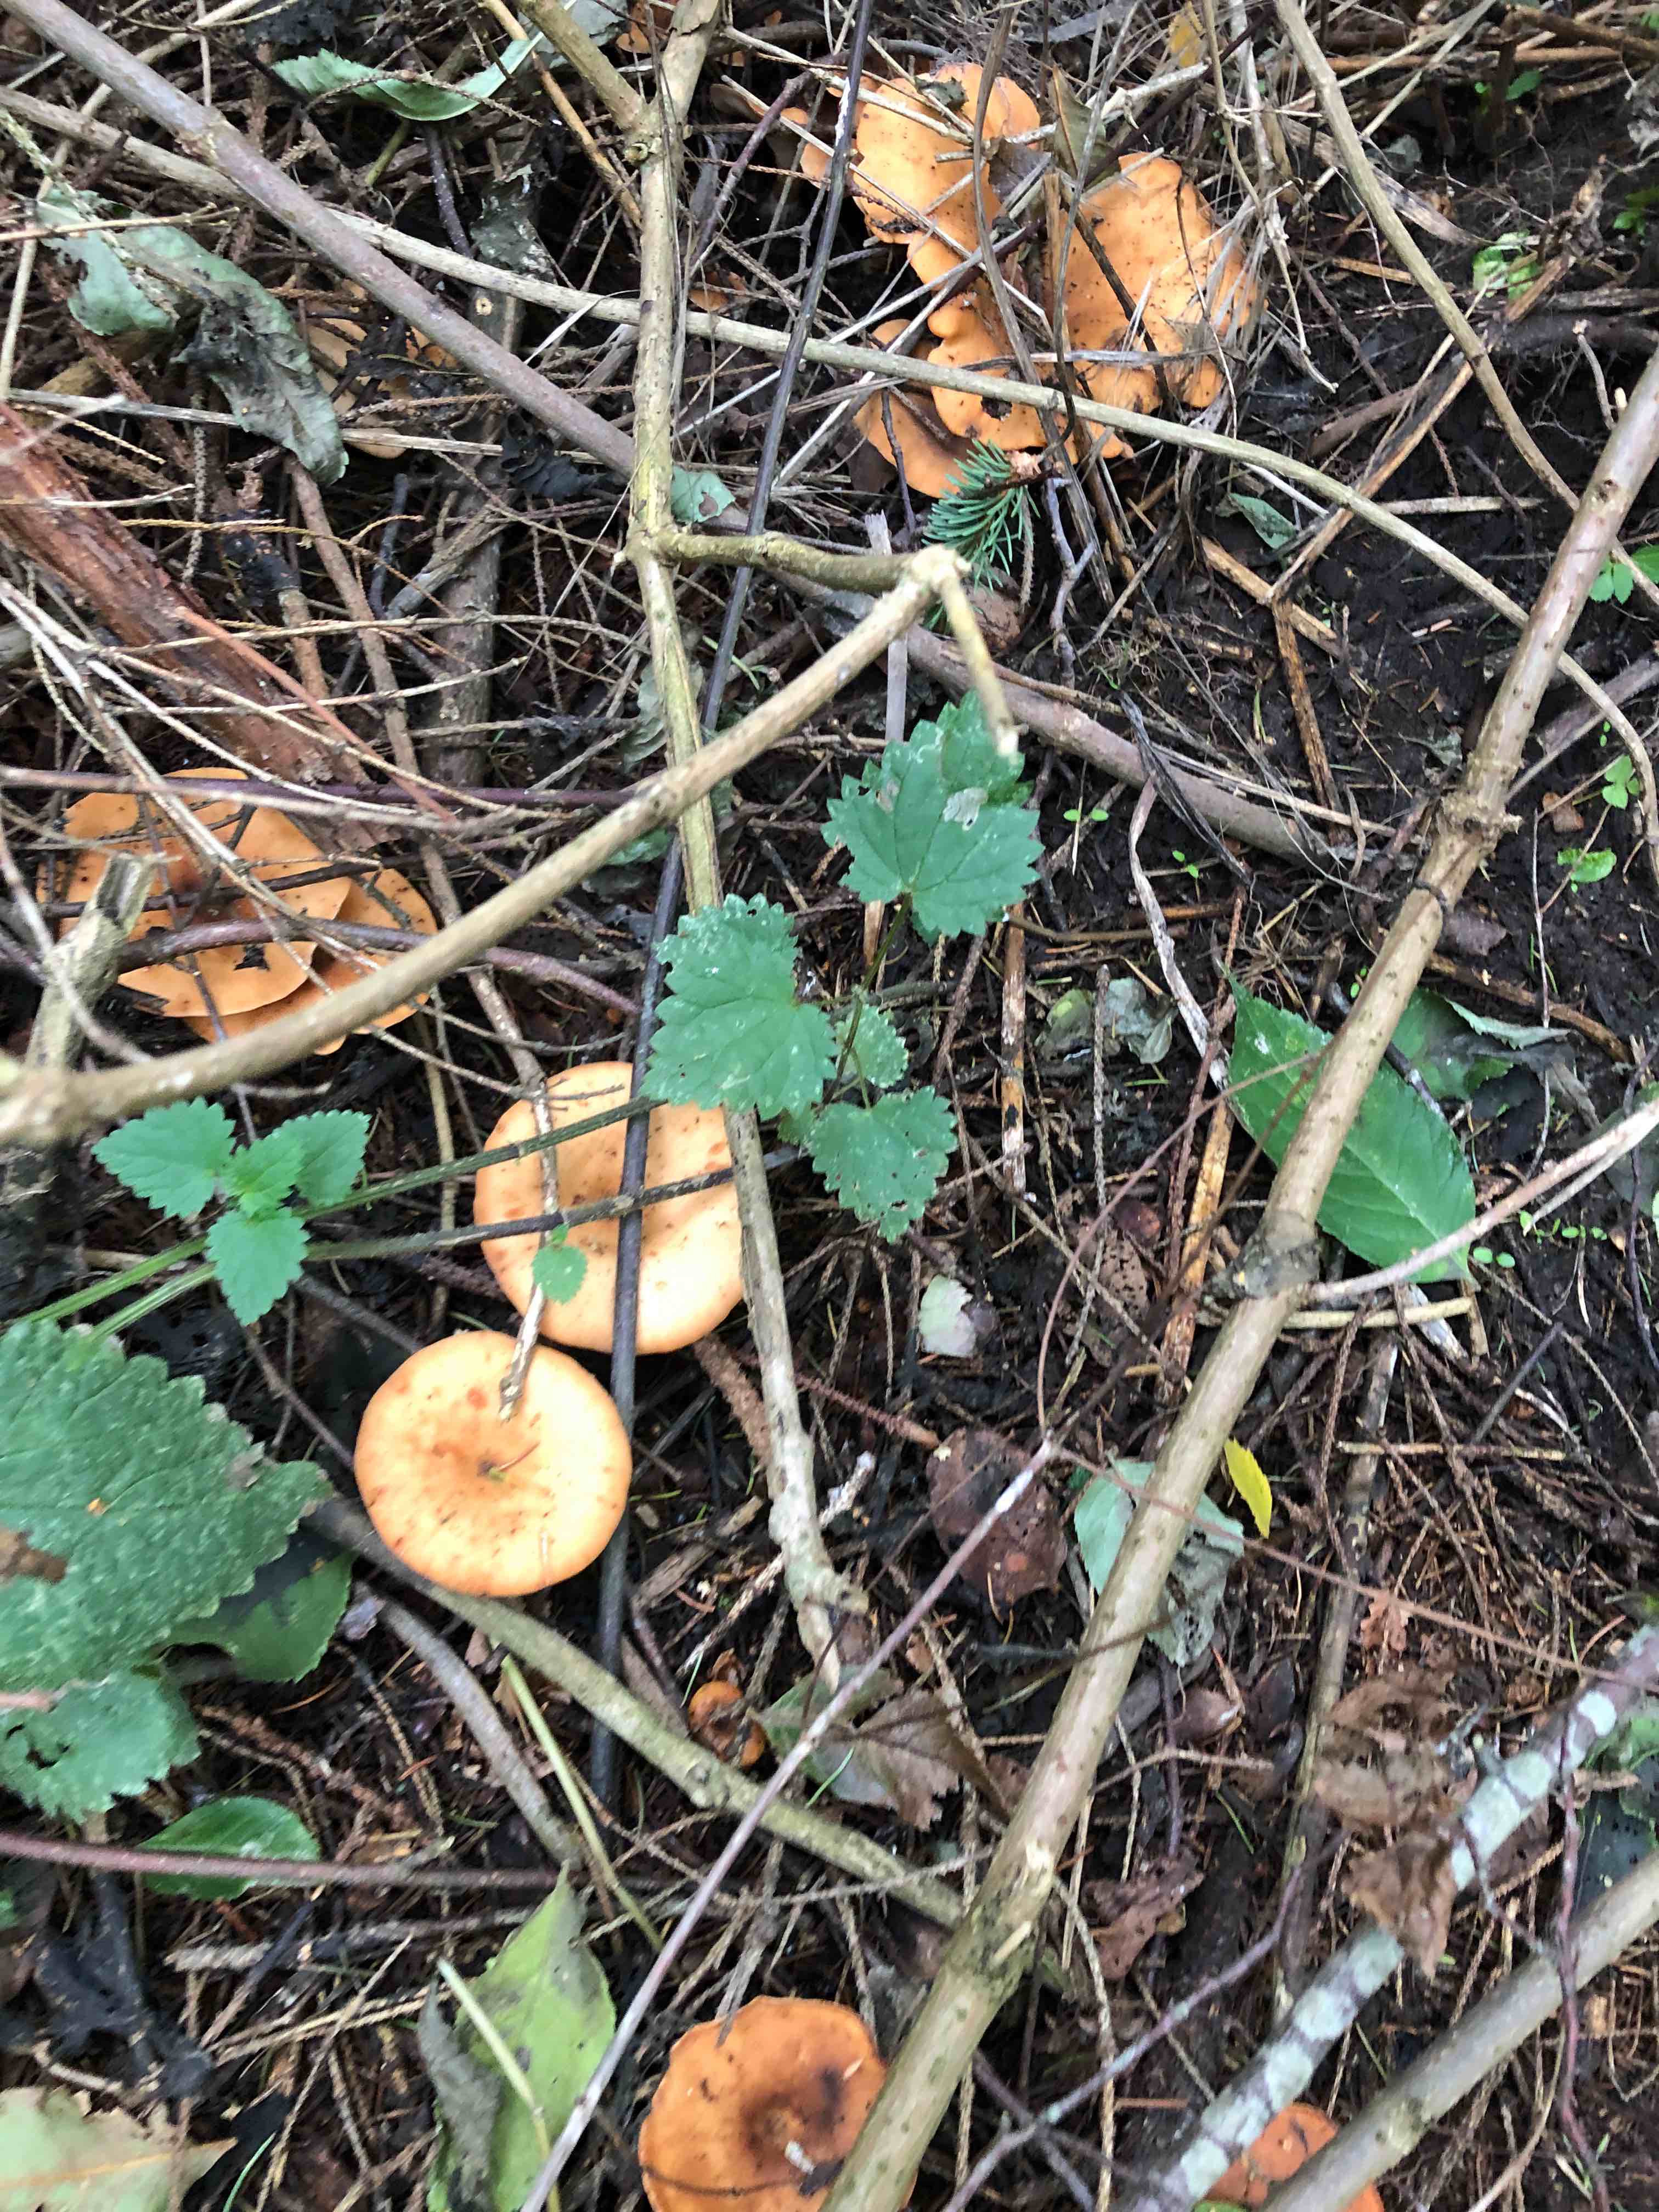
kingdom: Fungi
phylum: Basidiomycota
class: Agaricomycetes
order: Agaricales
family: Tricholomataceae
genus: Paralepista
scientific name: Paralepista flaccida
